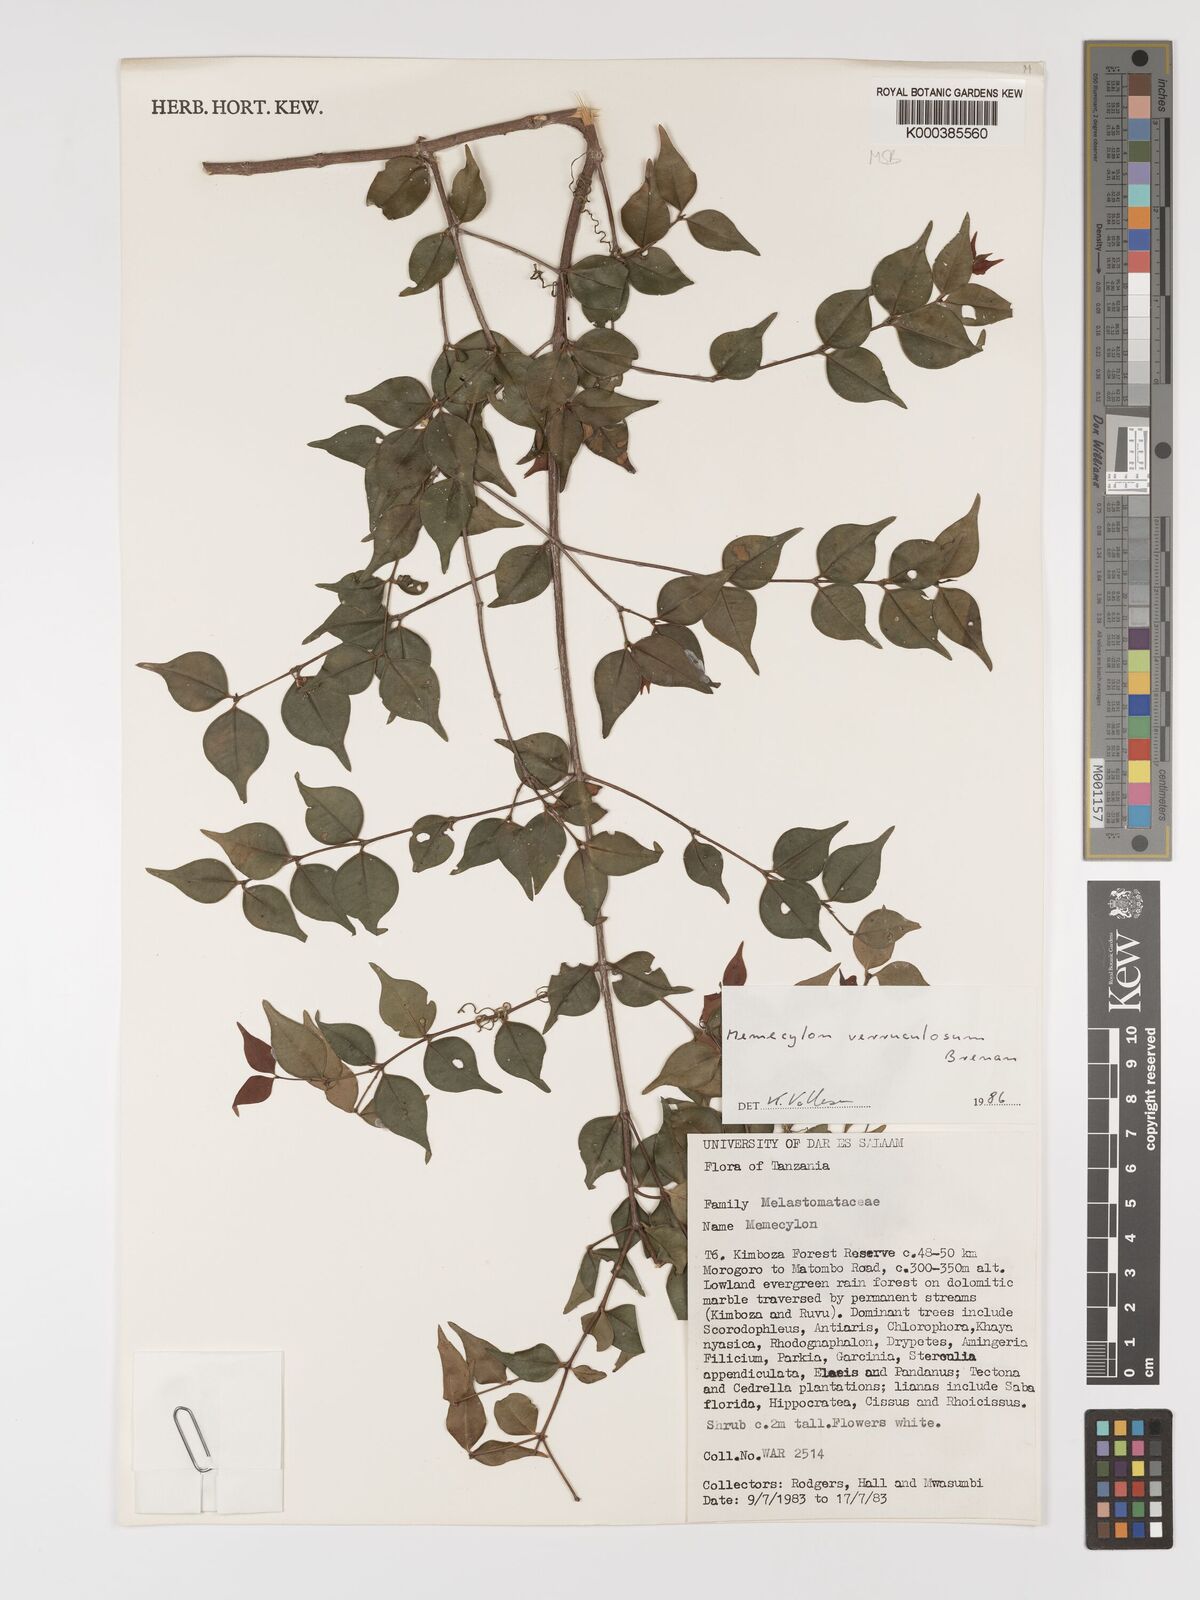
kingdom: Plantae
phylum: Tracheophyta
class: Magnoliopsida
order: Myrtales
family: Melastomataceae
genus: Memecylon
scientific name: Memecylon verruculosum
